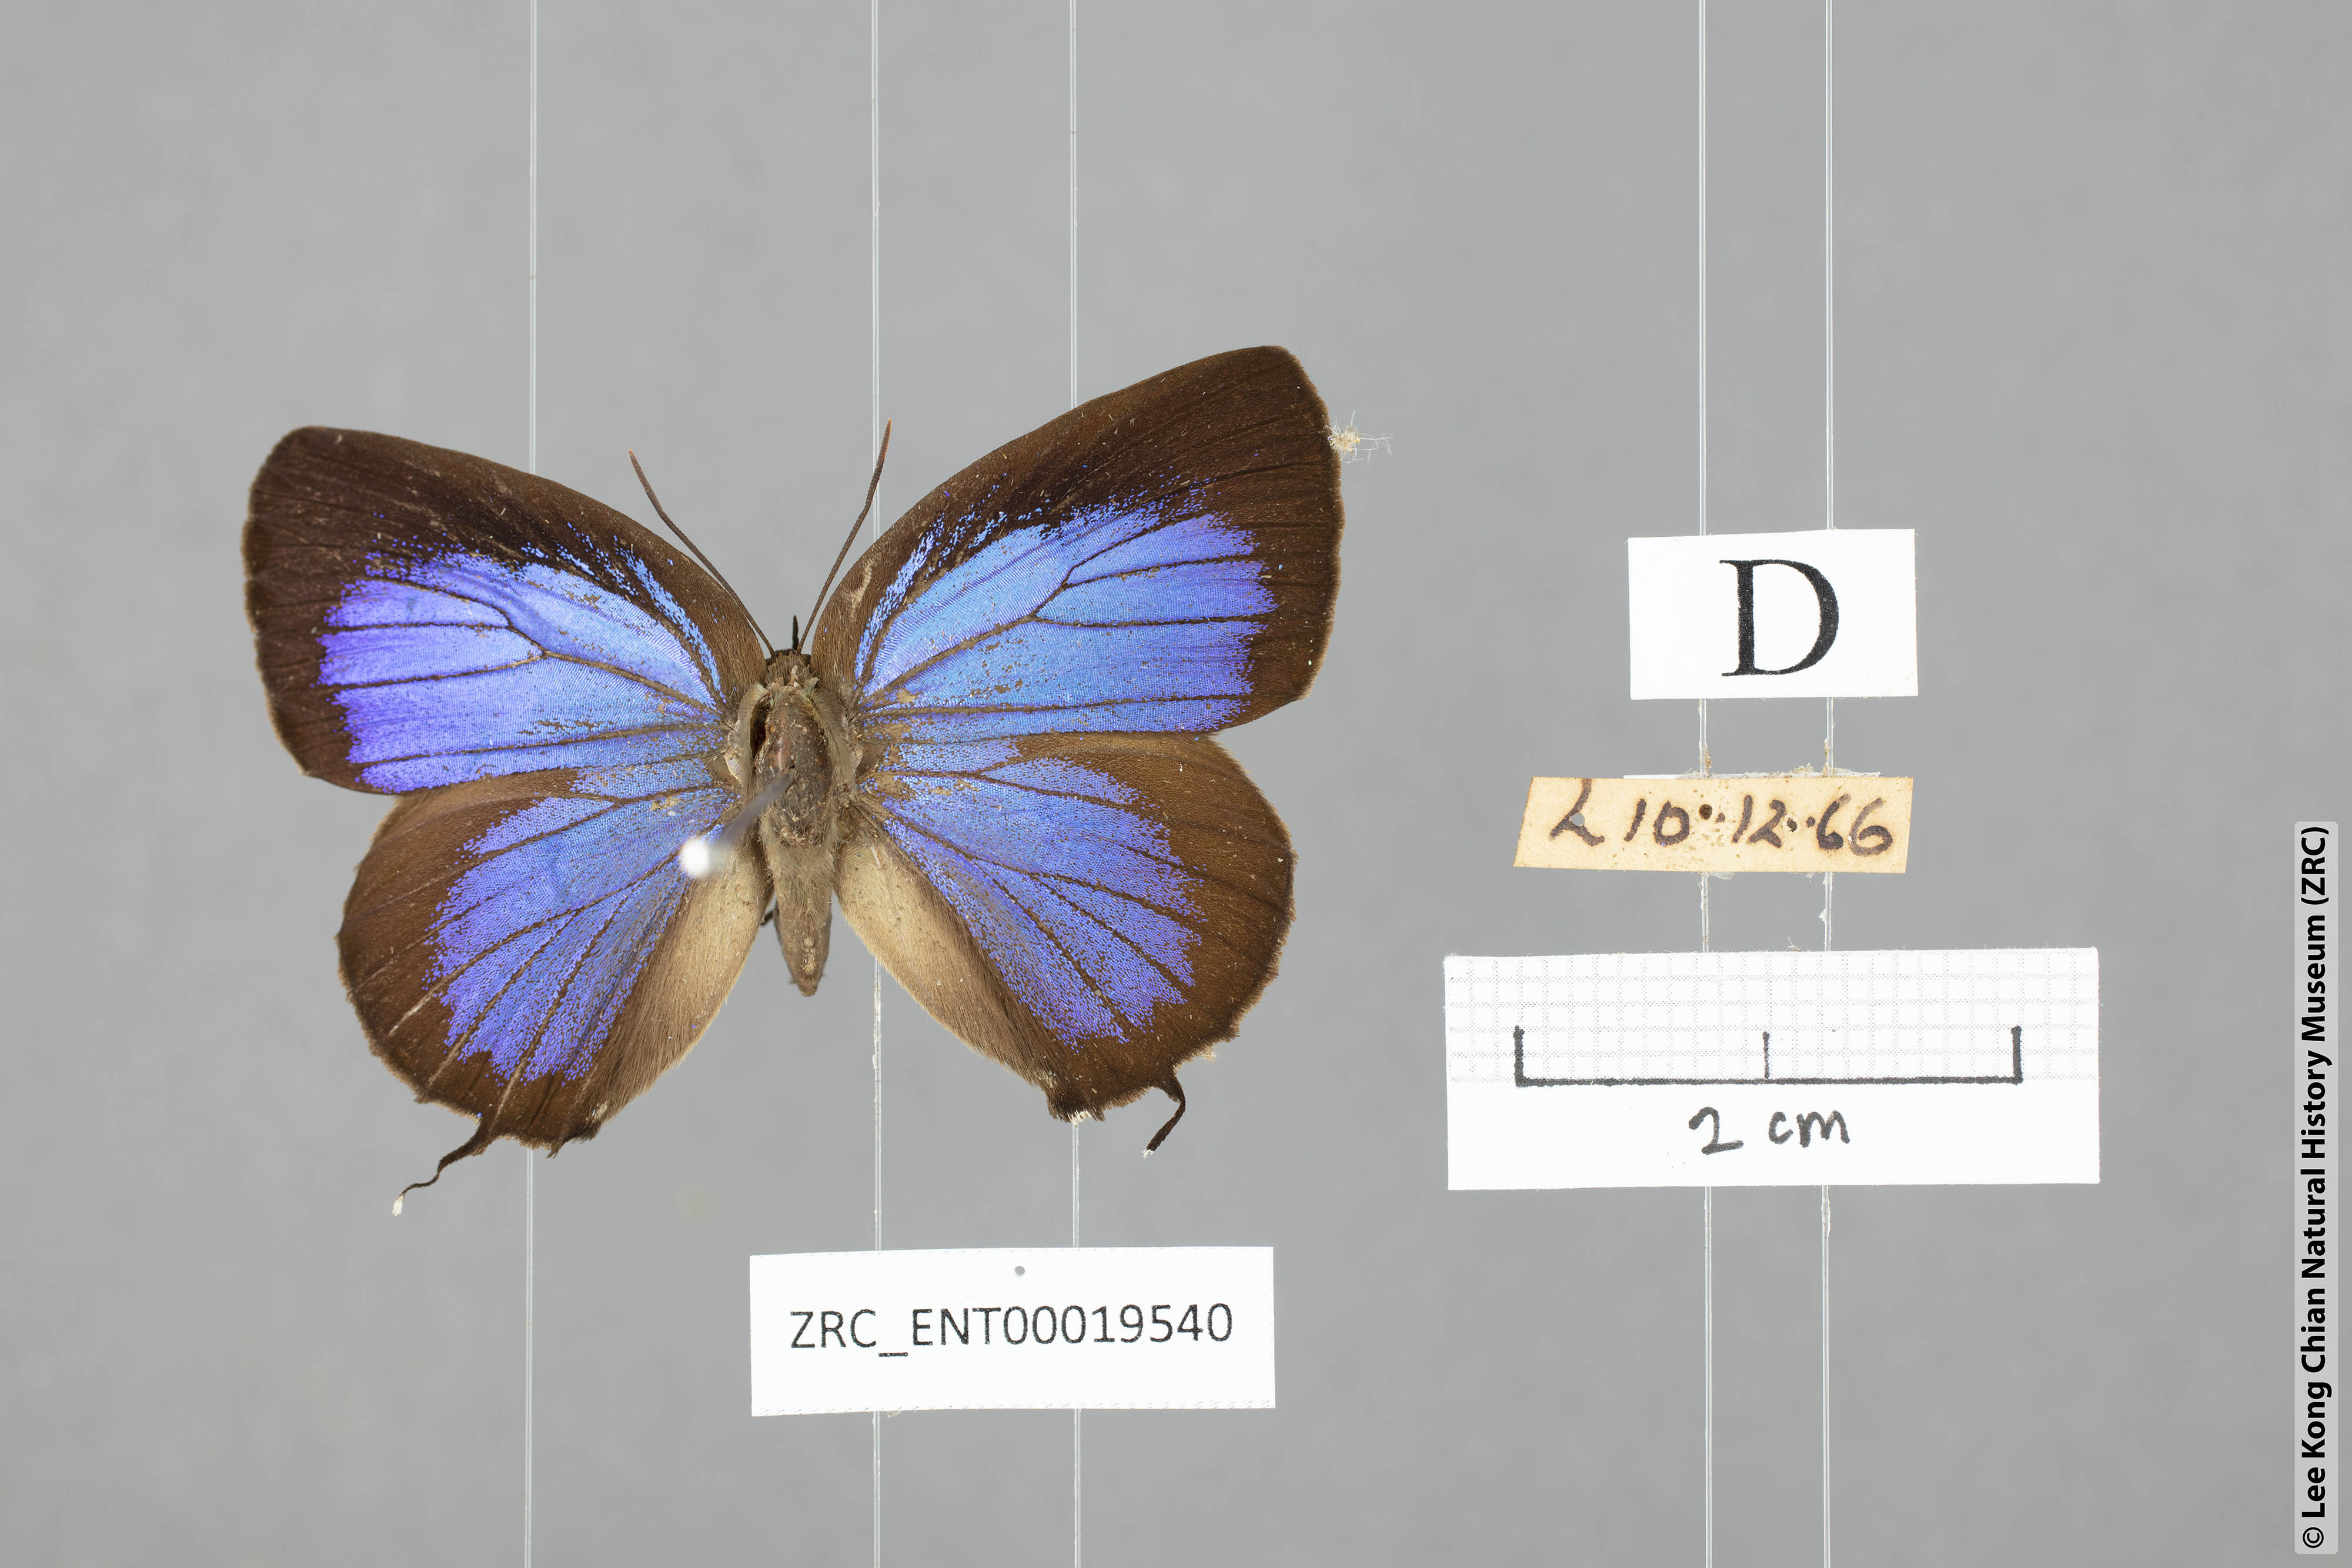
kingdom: Animalia
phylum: Arthropoda
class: Insecta
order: Lepidoptera
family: Lycaenidae
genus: Arhopala
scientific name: Arhopala horsfieldi
